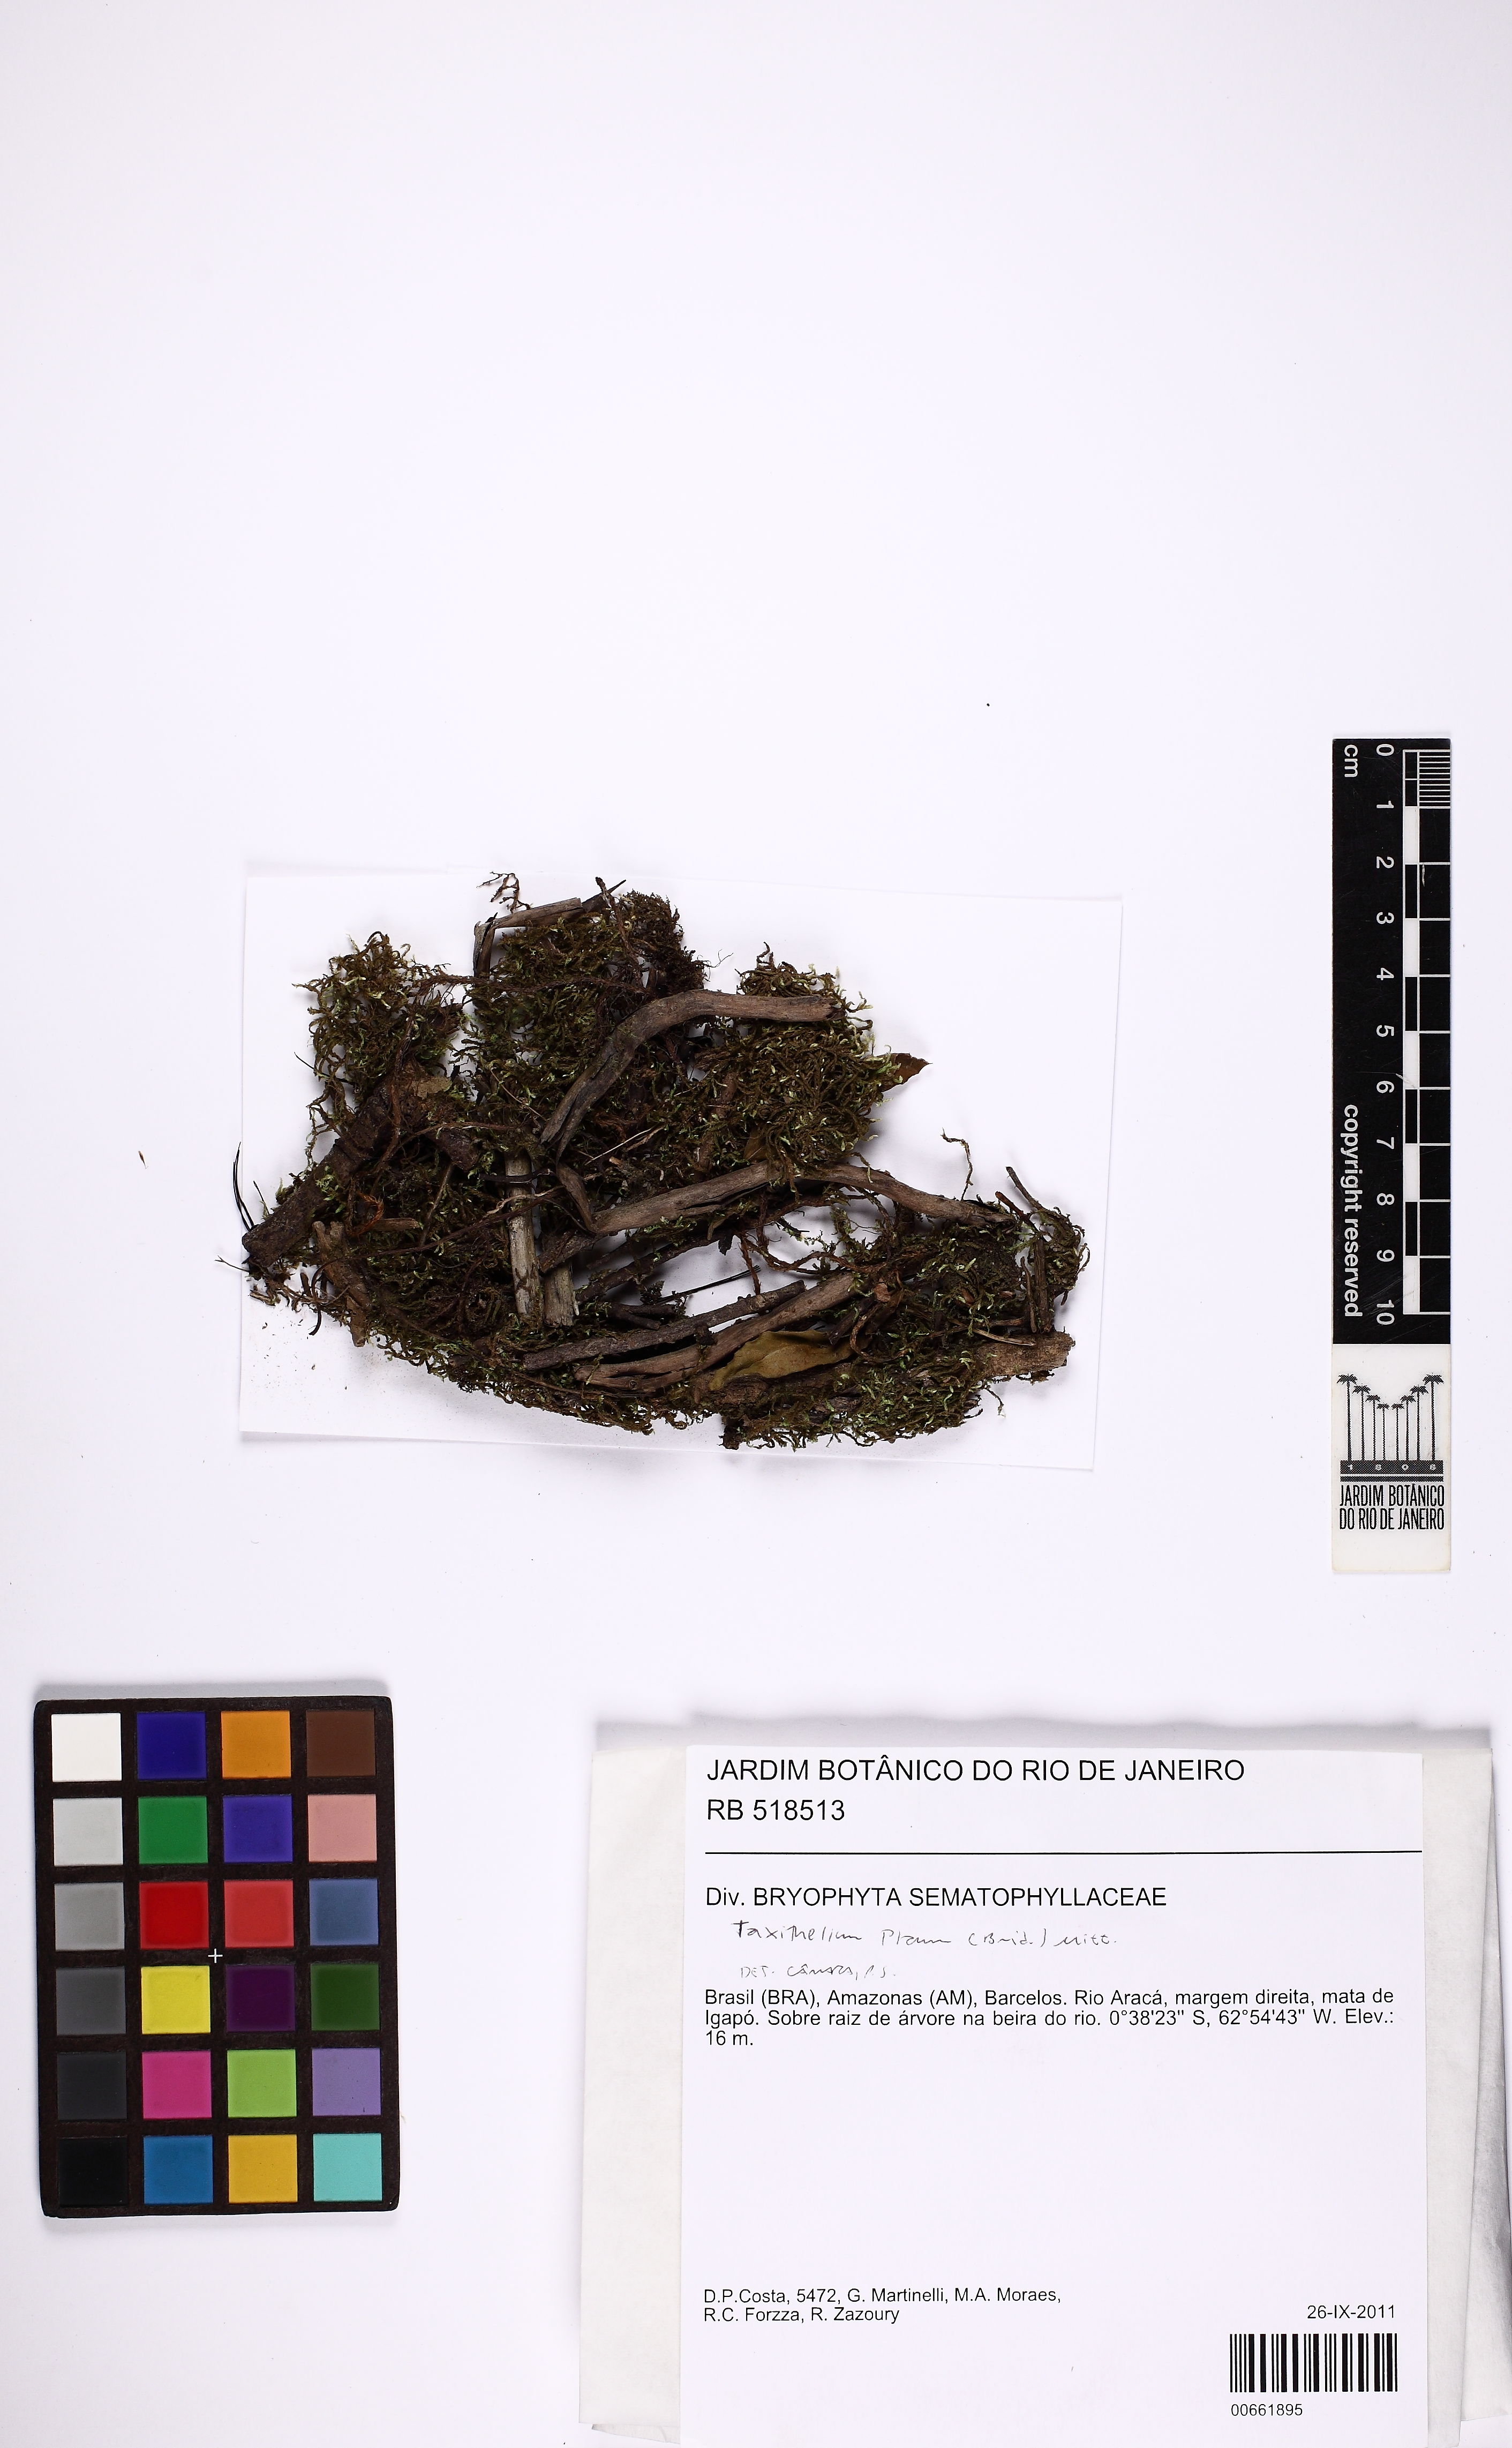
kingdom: Plantae
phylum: Bryophyta
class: Bryopsida
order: Hypnales
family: Pylaisiadelphaceae
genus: Taxithelium
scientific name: Taxithelium planum
